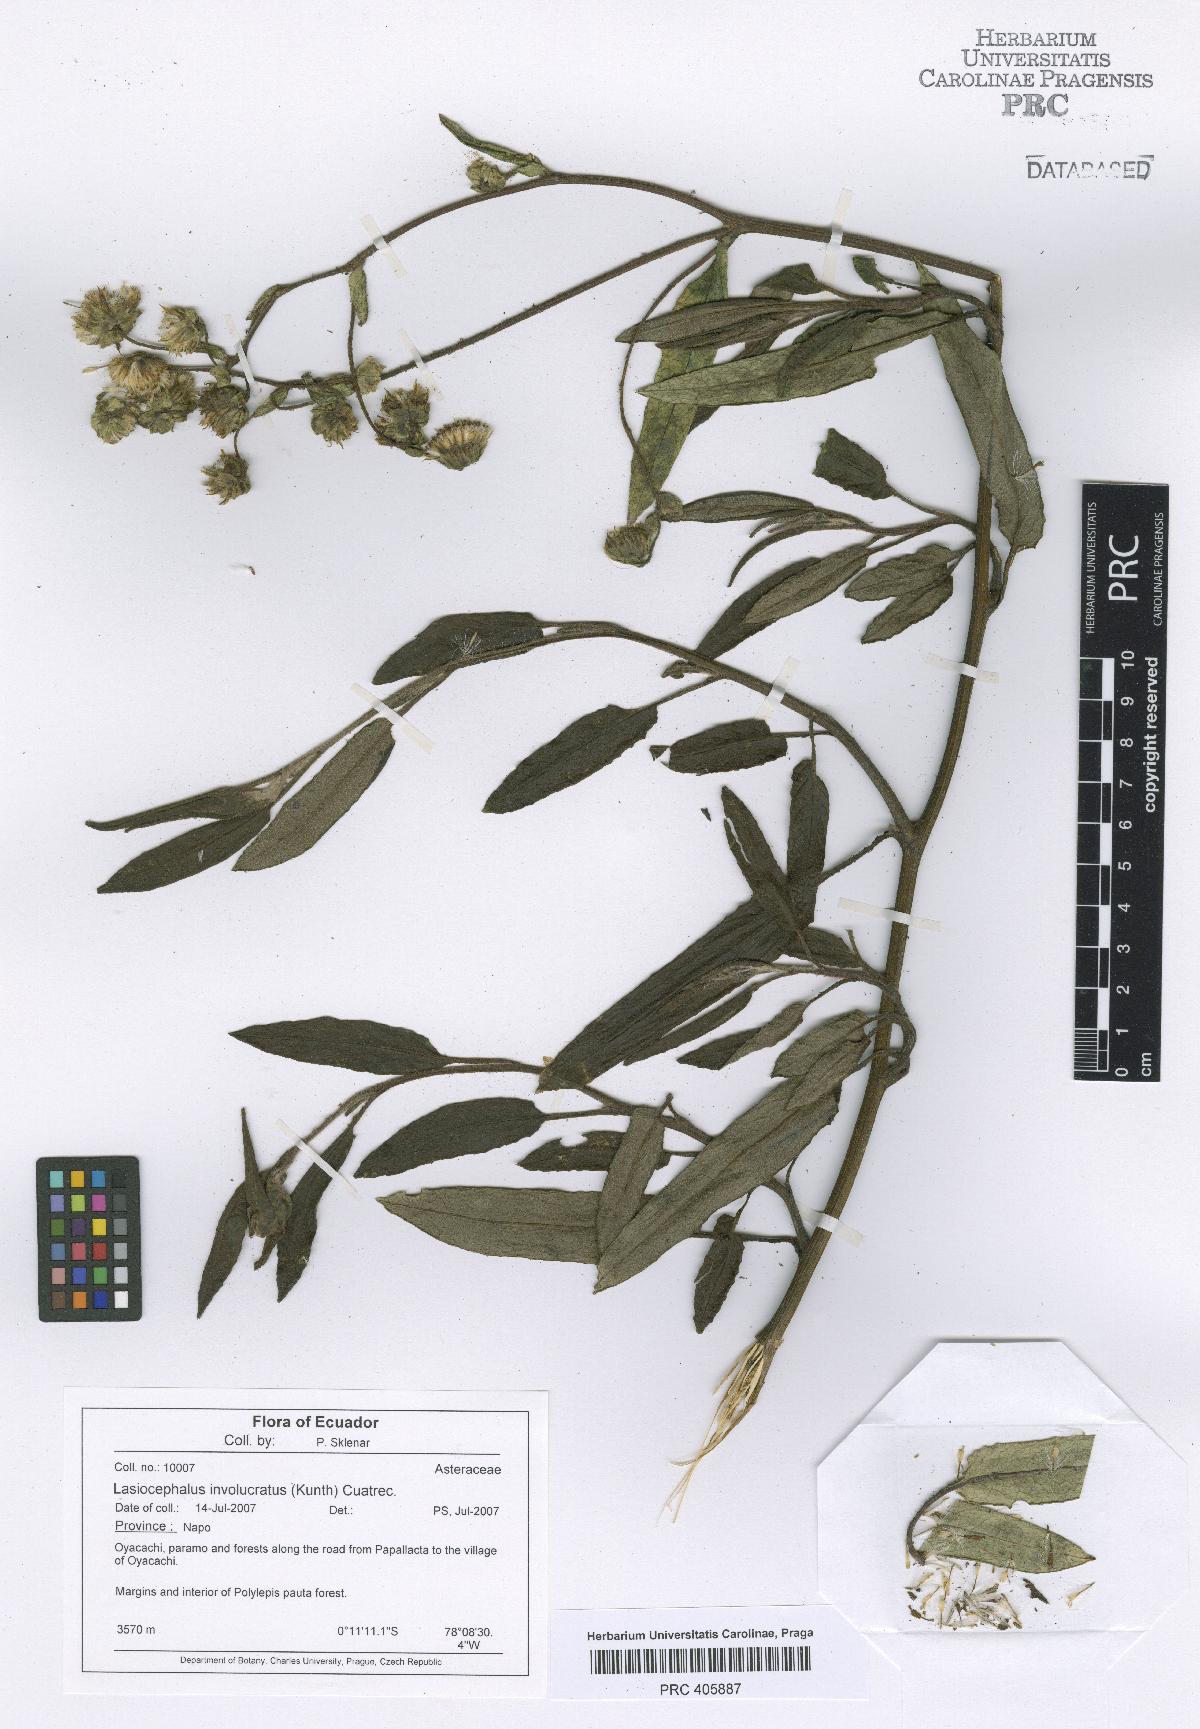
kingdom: Plantae
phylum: Tracheophyta
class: Magnoliopsida
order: Asterales
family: Asteraceae
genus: Aetheolaena
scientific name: Aetheolaena involucrata
